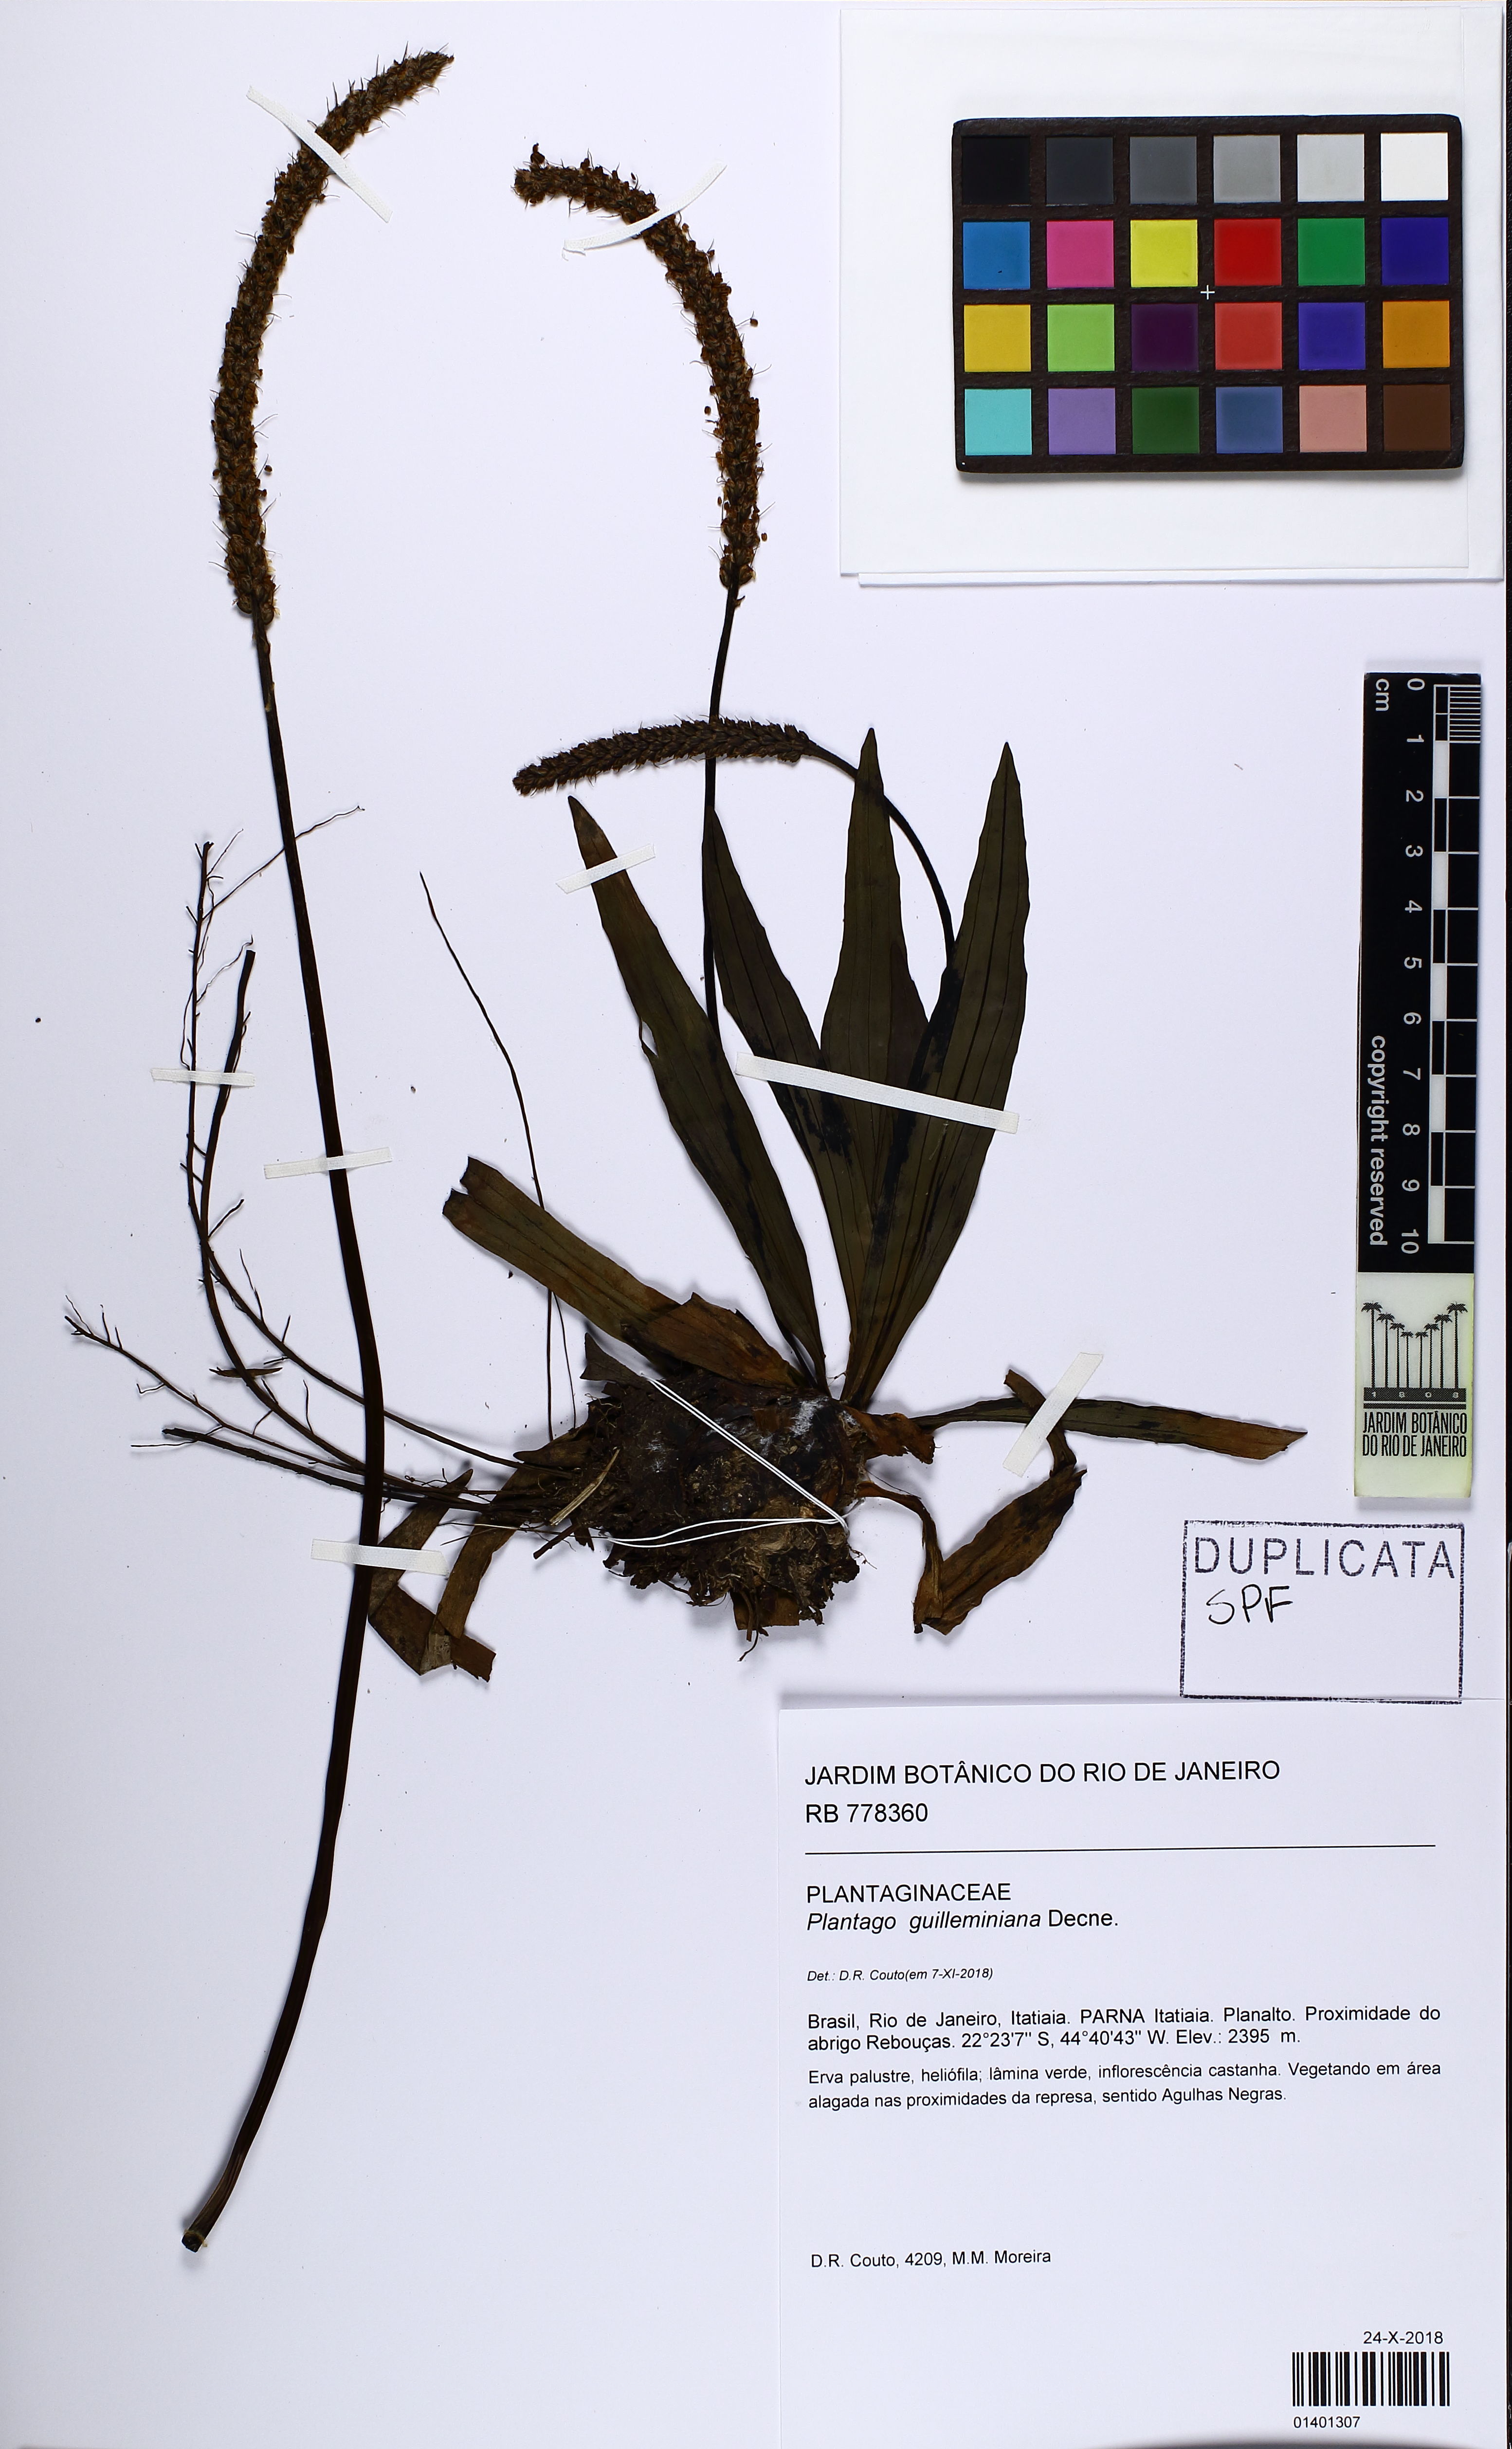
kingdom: Plantae
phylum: Tracheophyta
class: Magnoliopsida
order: Lamiales
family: Plantaginaceae
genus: Plantago
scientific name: Plantago guilleminiana
